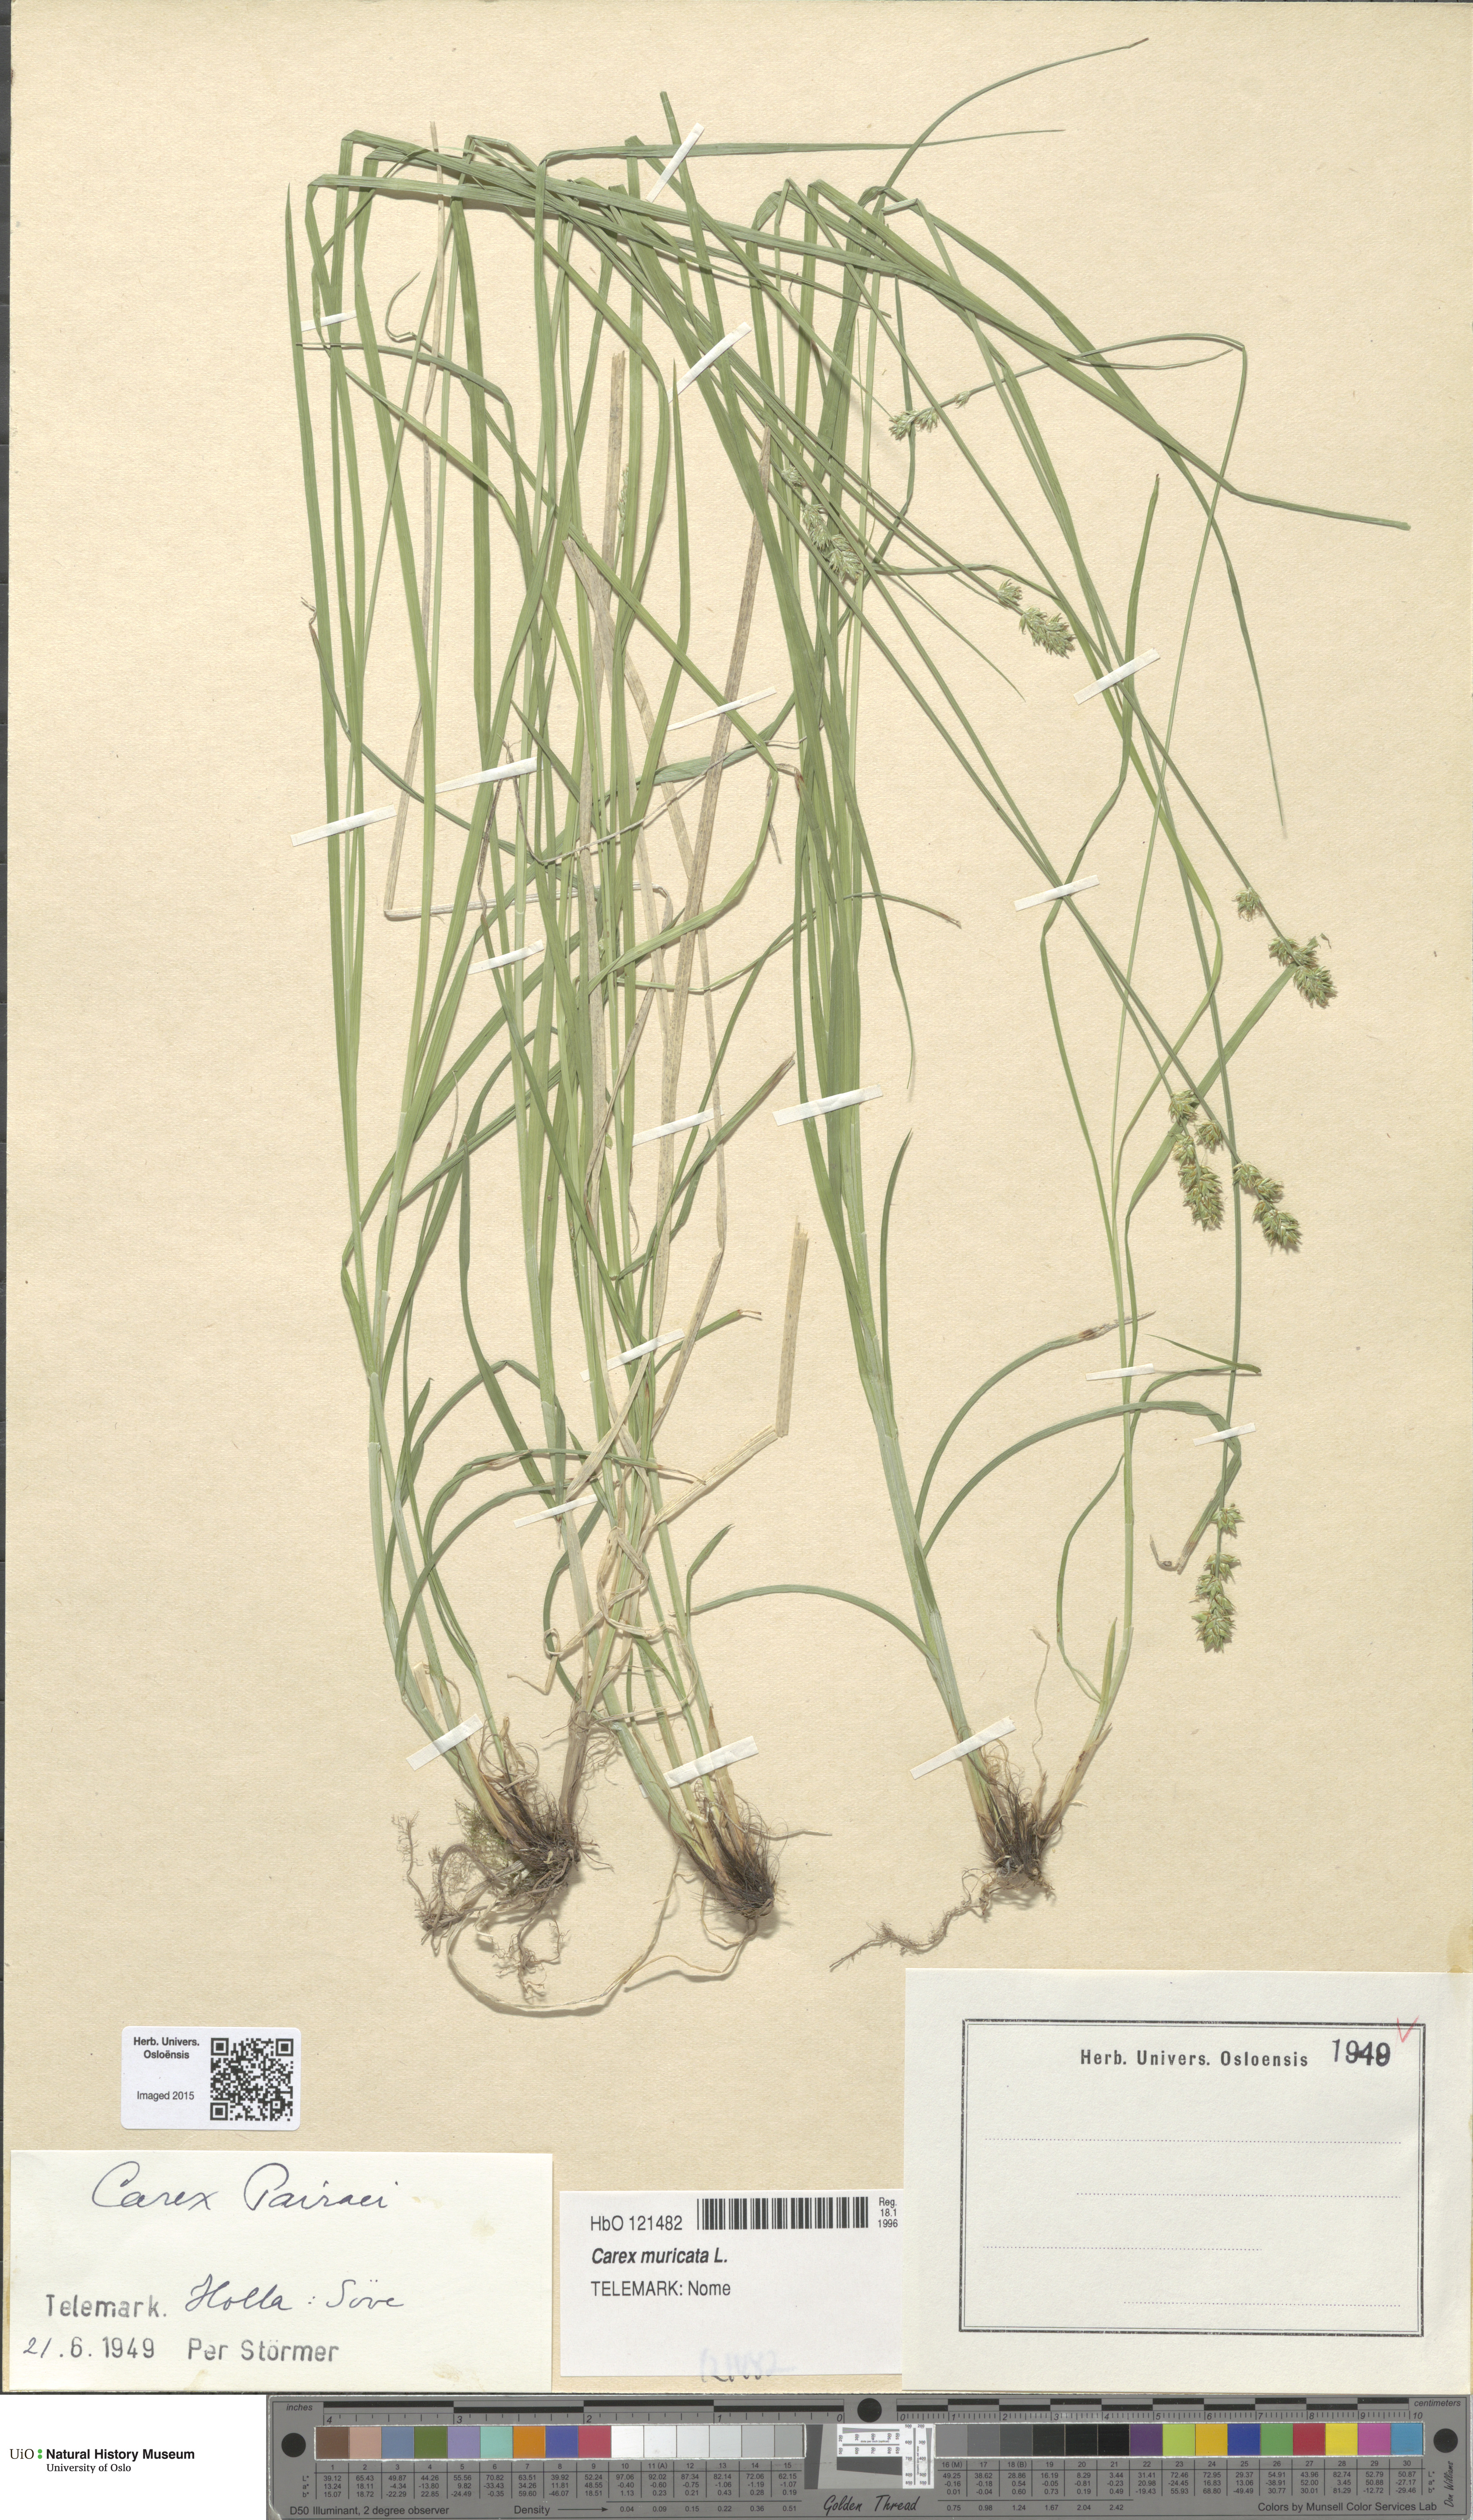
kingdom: Plantae
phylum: Tracheophyta
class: Liliopsida
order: Poales
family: Cyperaceae
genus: Carex
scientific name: Carex pairae
